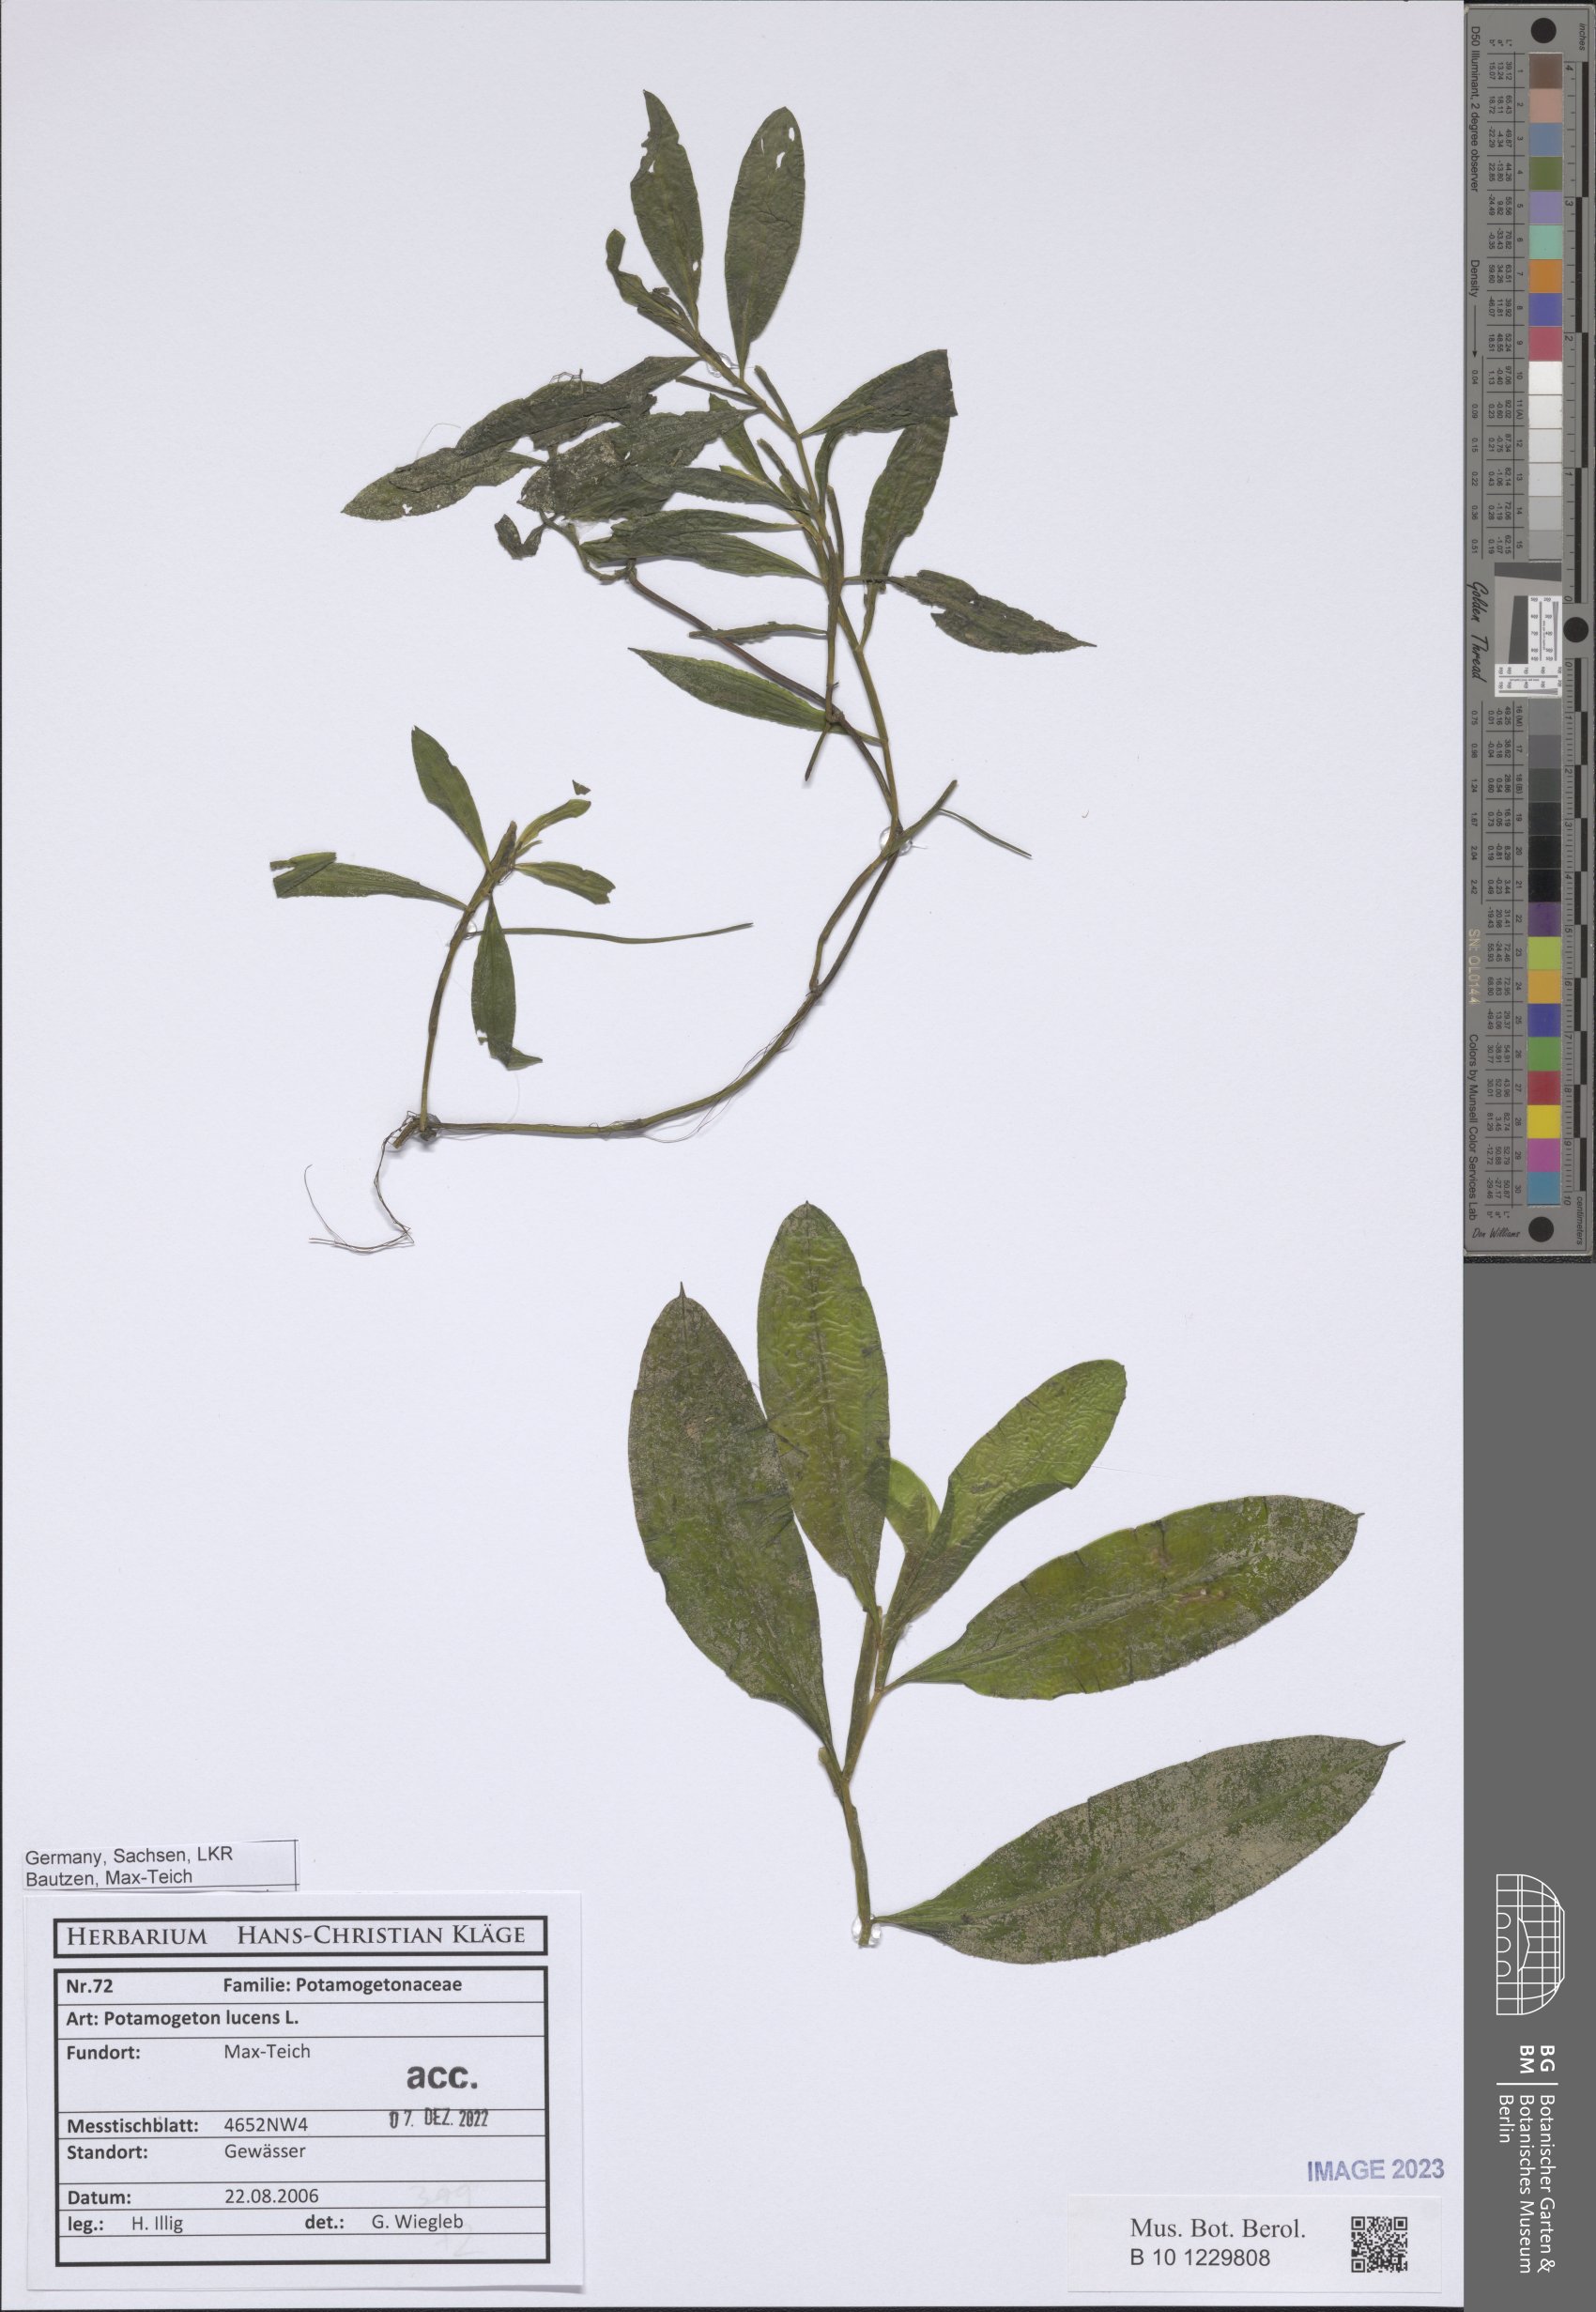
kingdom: Plantae
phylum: Tracheophyta
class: Liliopsida
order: Alismatales
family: Potamogetonaceae
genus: Potamogeton
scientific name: Potamogeton lucens
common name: Shining pondweed
